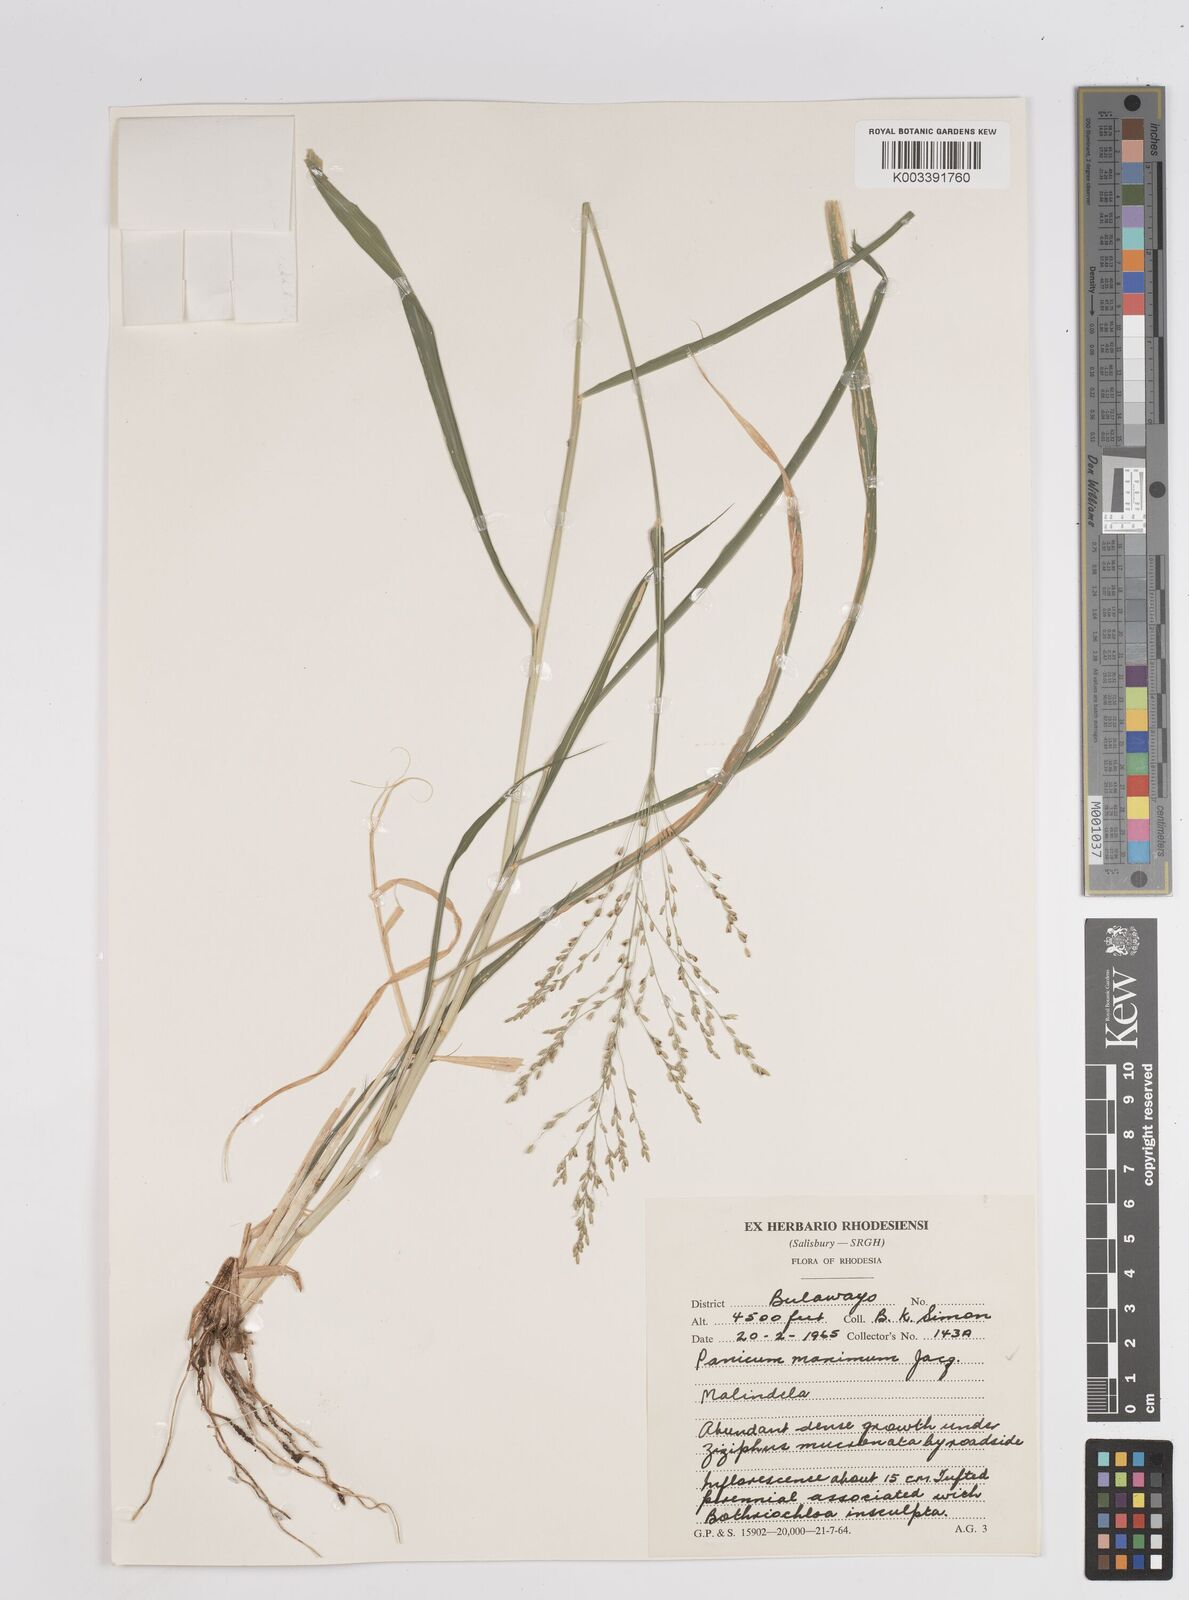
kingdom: Plantae
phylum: Tracheophyta
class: Liliopsida
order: Poales
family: Poaceae
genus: Megathyrsus
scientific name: Megathyrsus maximus
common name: Guineagrass
